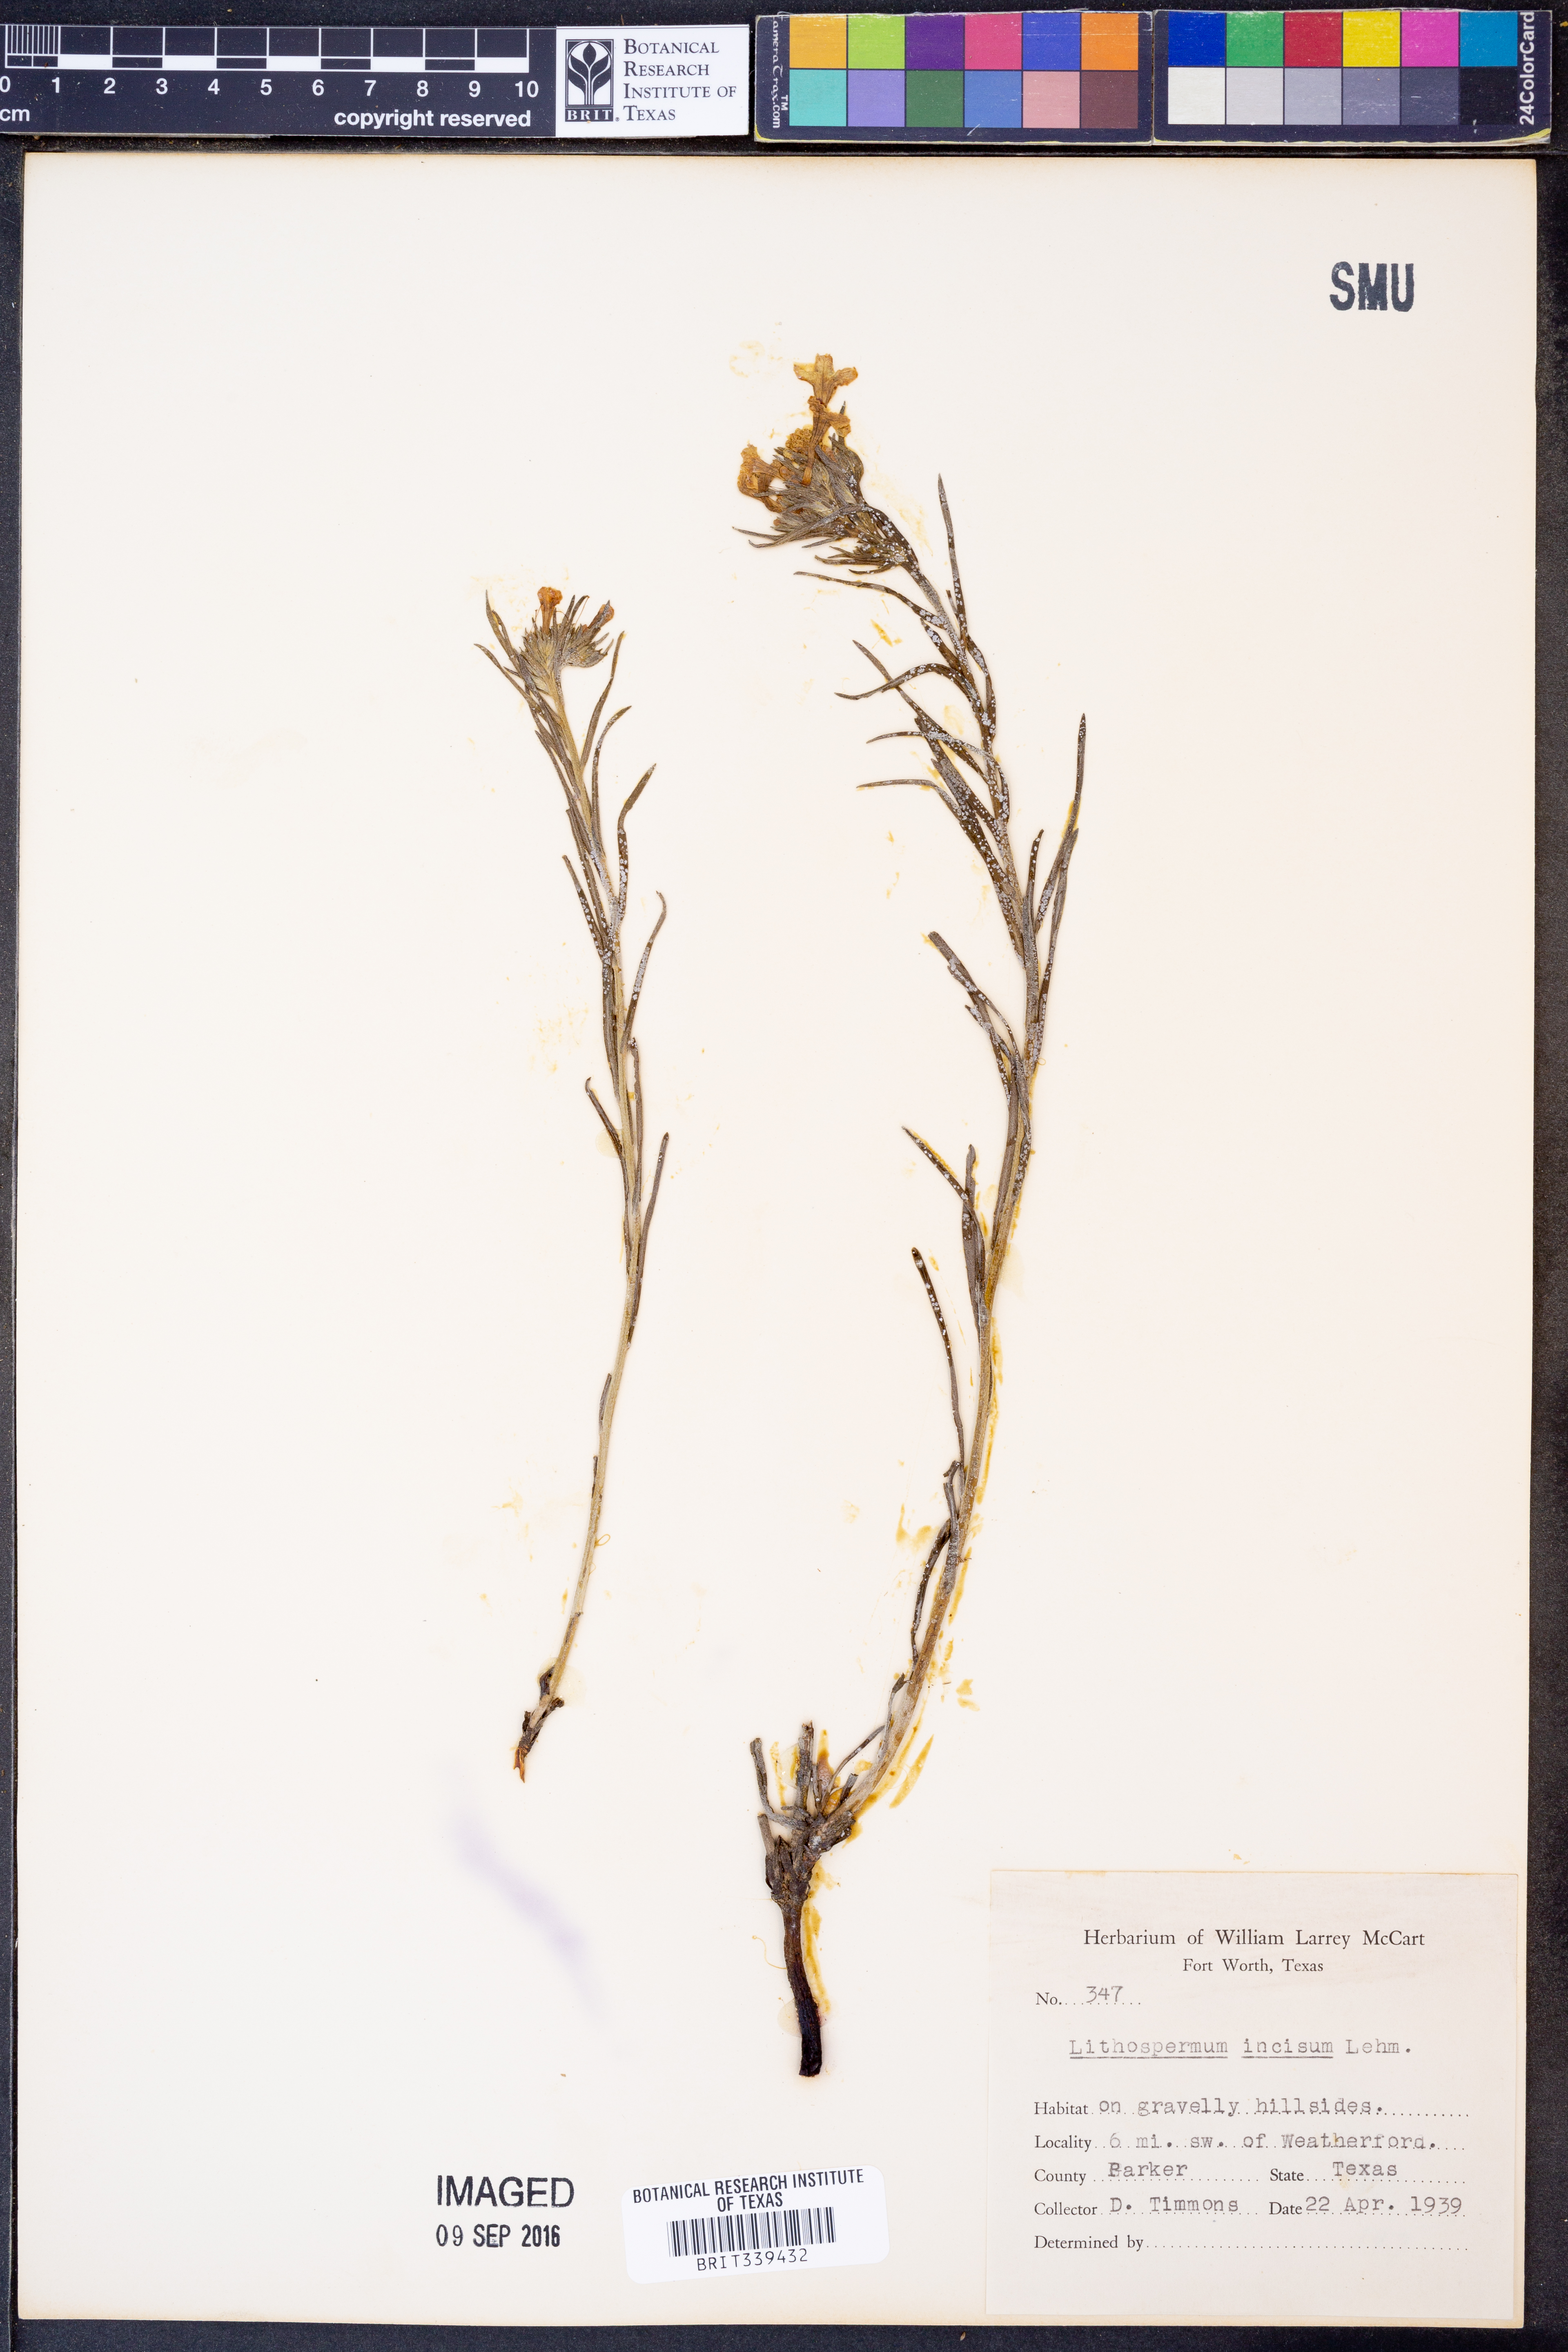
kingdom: Plantae
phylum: Tracheophyta
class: Magnoliopsida
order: Boraginales
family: Boraginaceae
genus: Lithospermum
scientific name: Lithospermum incisum
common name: Fringed gromwell
